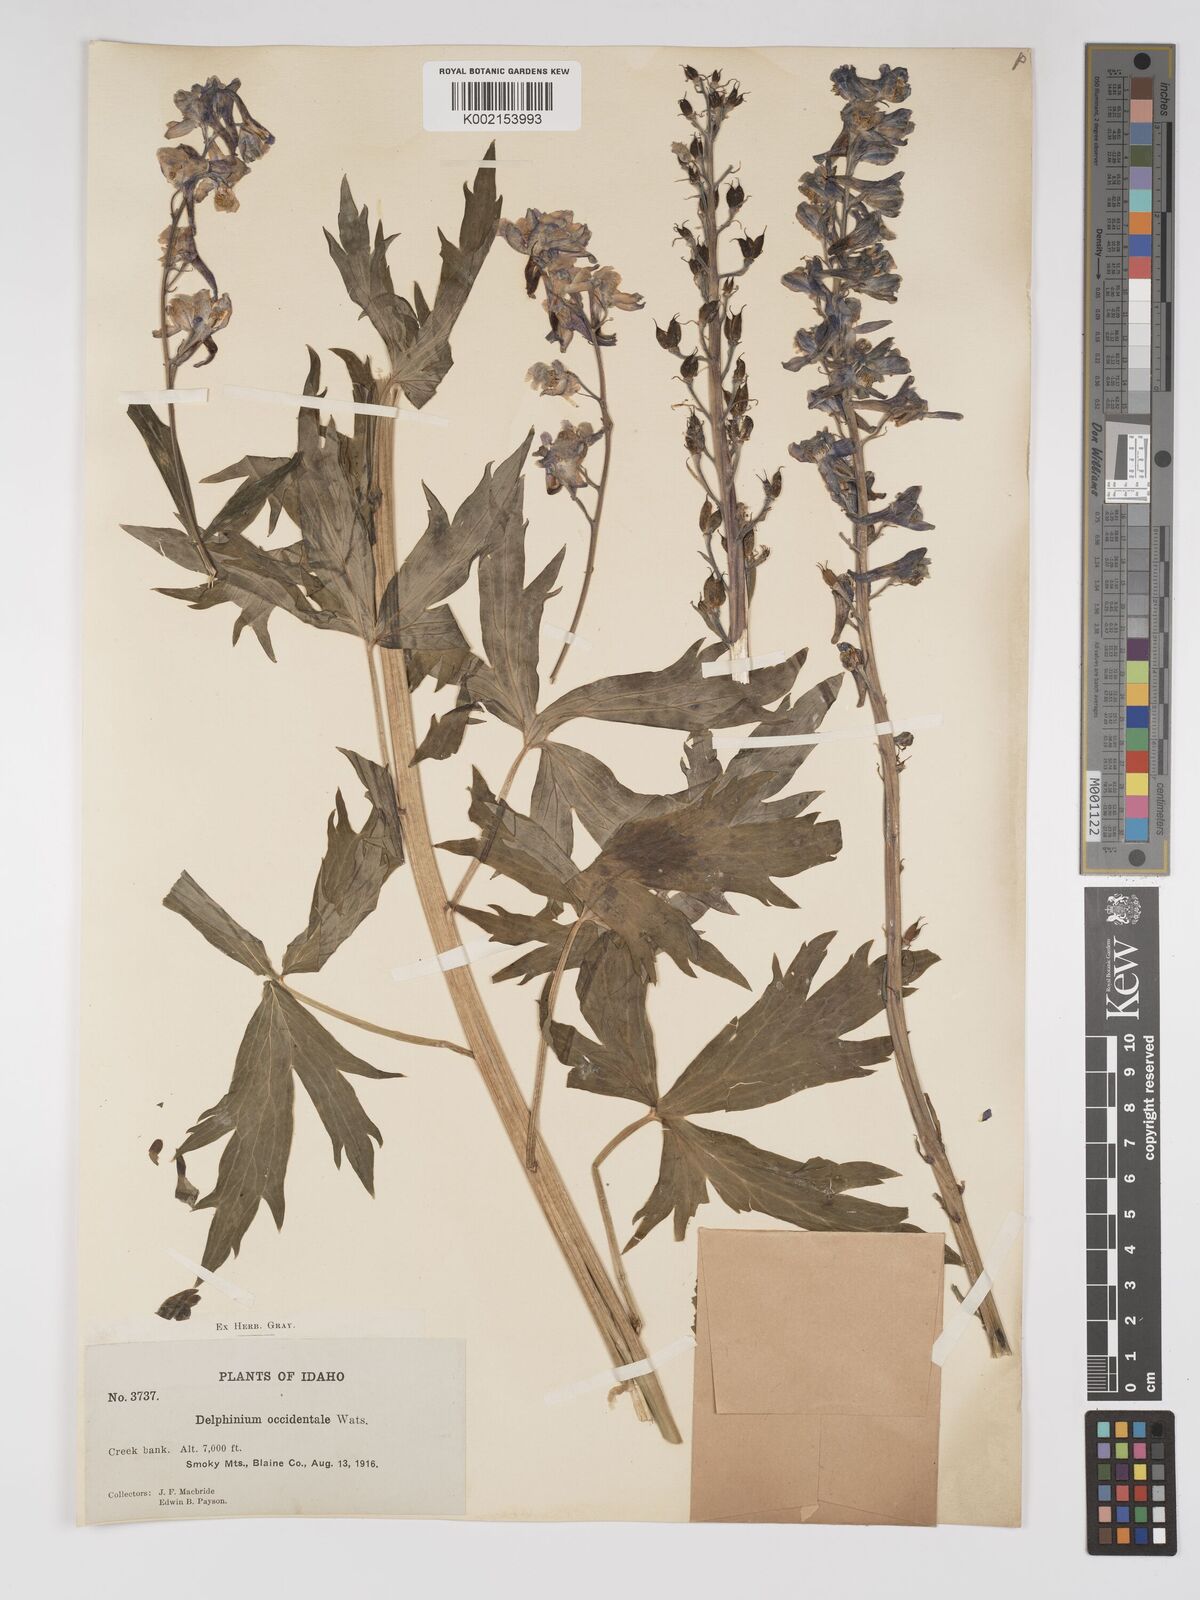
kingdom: Plantae
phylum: Tracheophyta
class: Magnoliopsida
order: Ranunculales
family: Ranunculaceae
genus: Delphinium
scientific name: Delphinium occidentale
